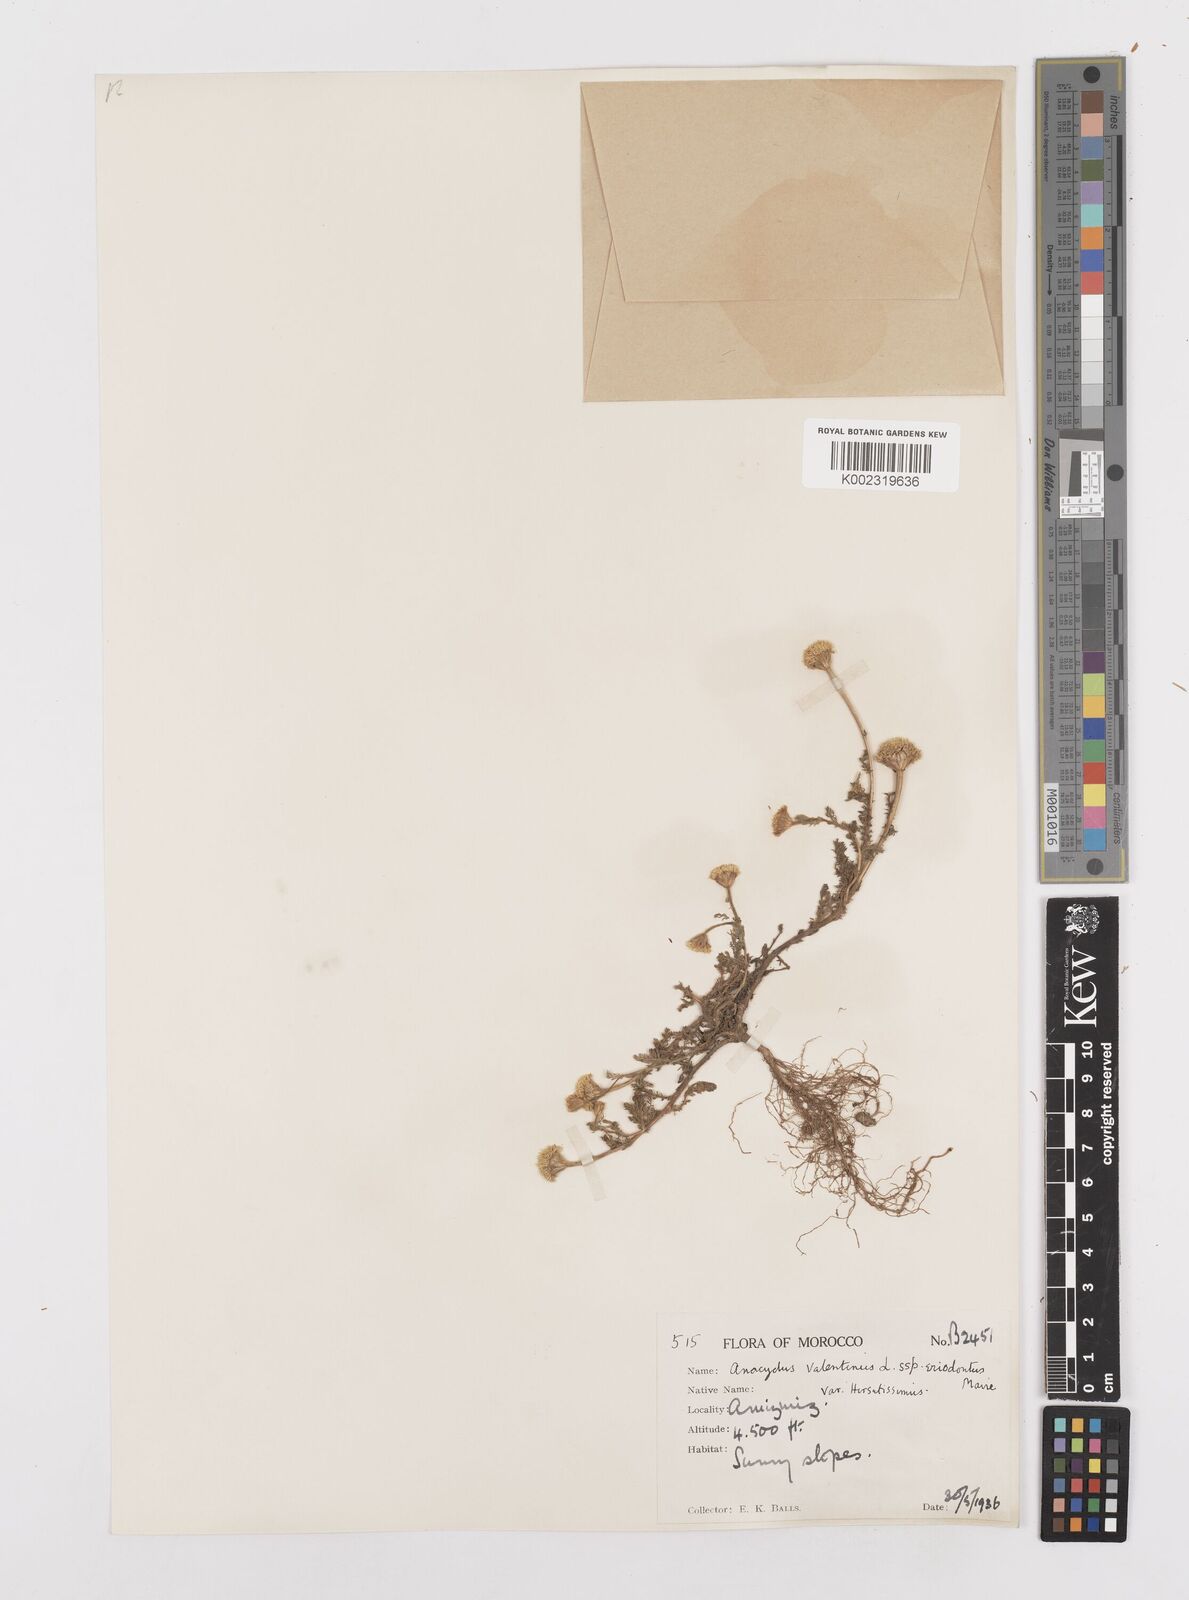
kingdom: Plantae
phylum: Tracheophyta
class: Magnoliopsida
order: Asterales
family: Asteraceae
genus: Anacyclus
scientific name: Anacyclus valentinus
